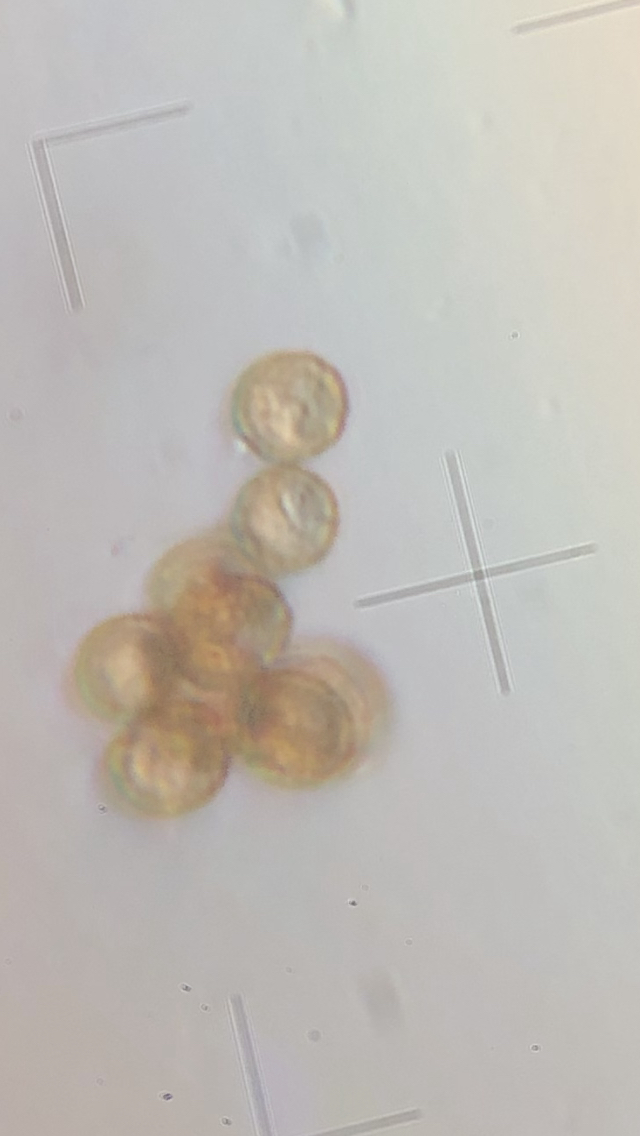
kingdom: Fungi
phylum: Basidiomycota
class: Agaricomycetes
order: Agaricales
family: Chromocyphellaceae
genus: Chromocyphella
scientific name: Chromocyphella muscicola
